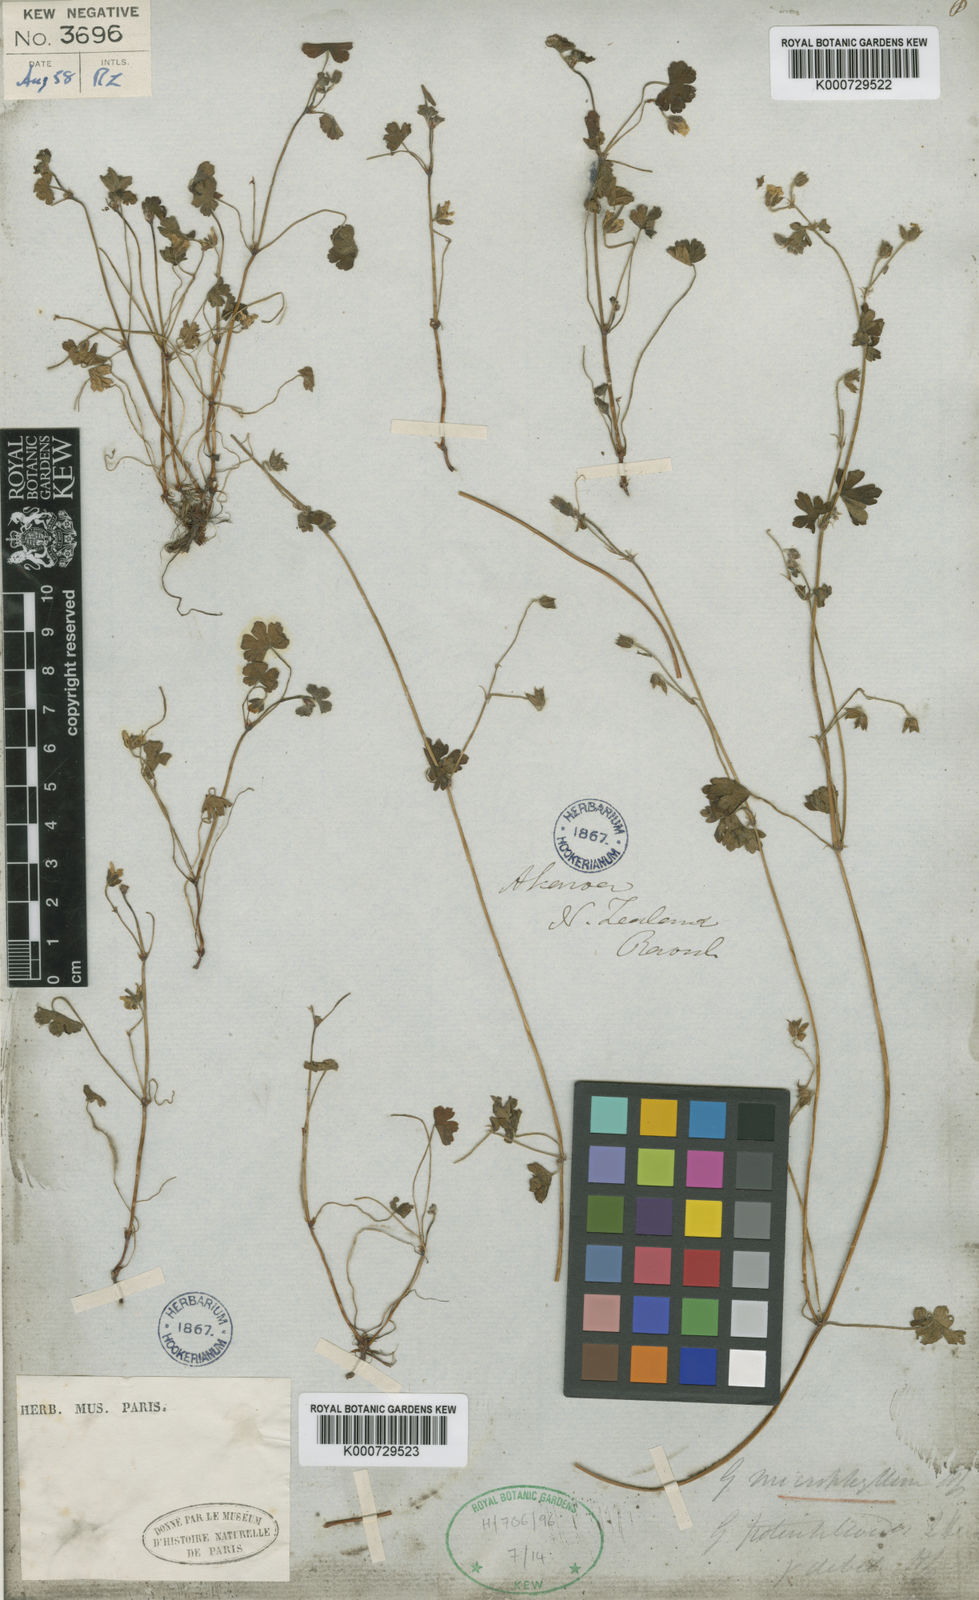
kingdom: Plantae
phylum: Tracheophyta
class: Magnoliopsida
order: Geraniales
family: Geraniaceae
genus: Geranium
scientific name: Geranium
